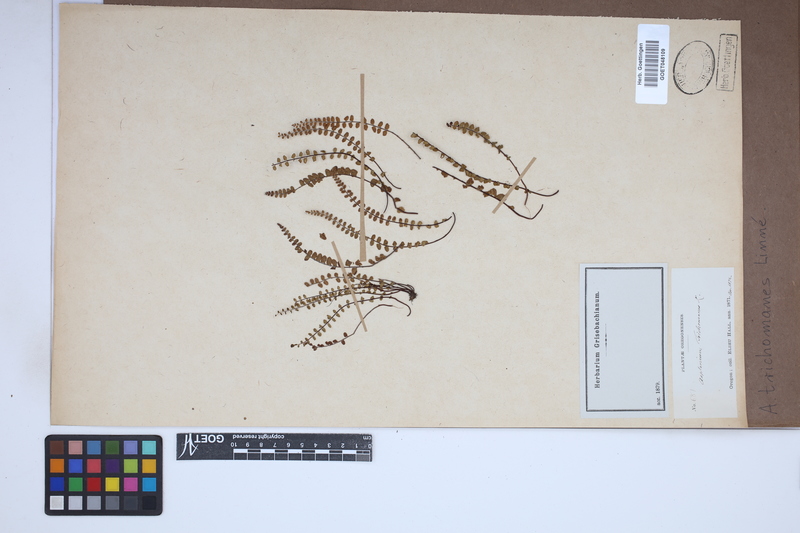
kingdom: Plantae
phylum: Tracheophyta
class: Polypodiopsida
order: Polypodiales
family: Aspleniaceae
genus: Asplenium
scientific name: Asplenium trichomanes
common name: Maidenhair spleenwort
